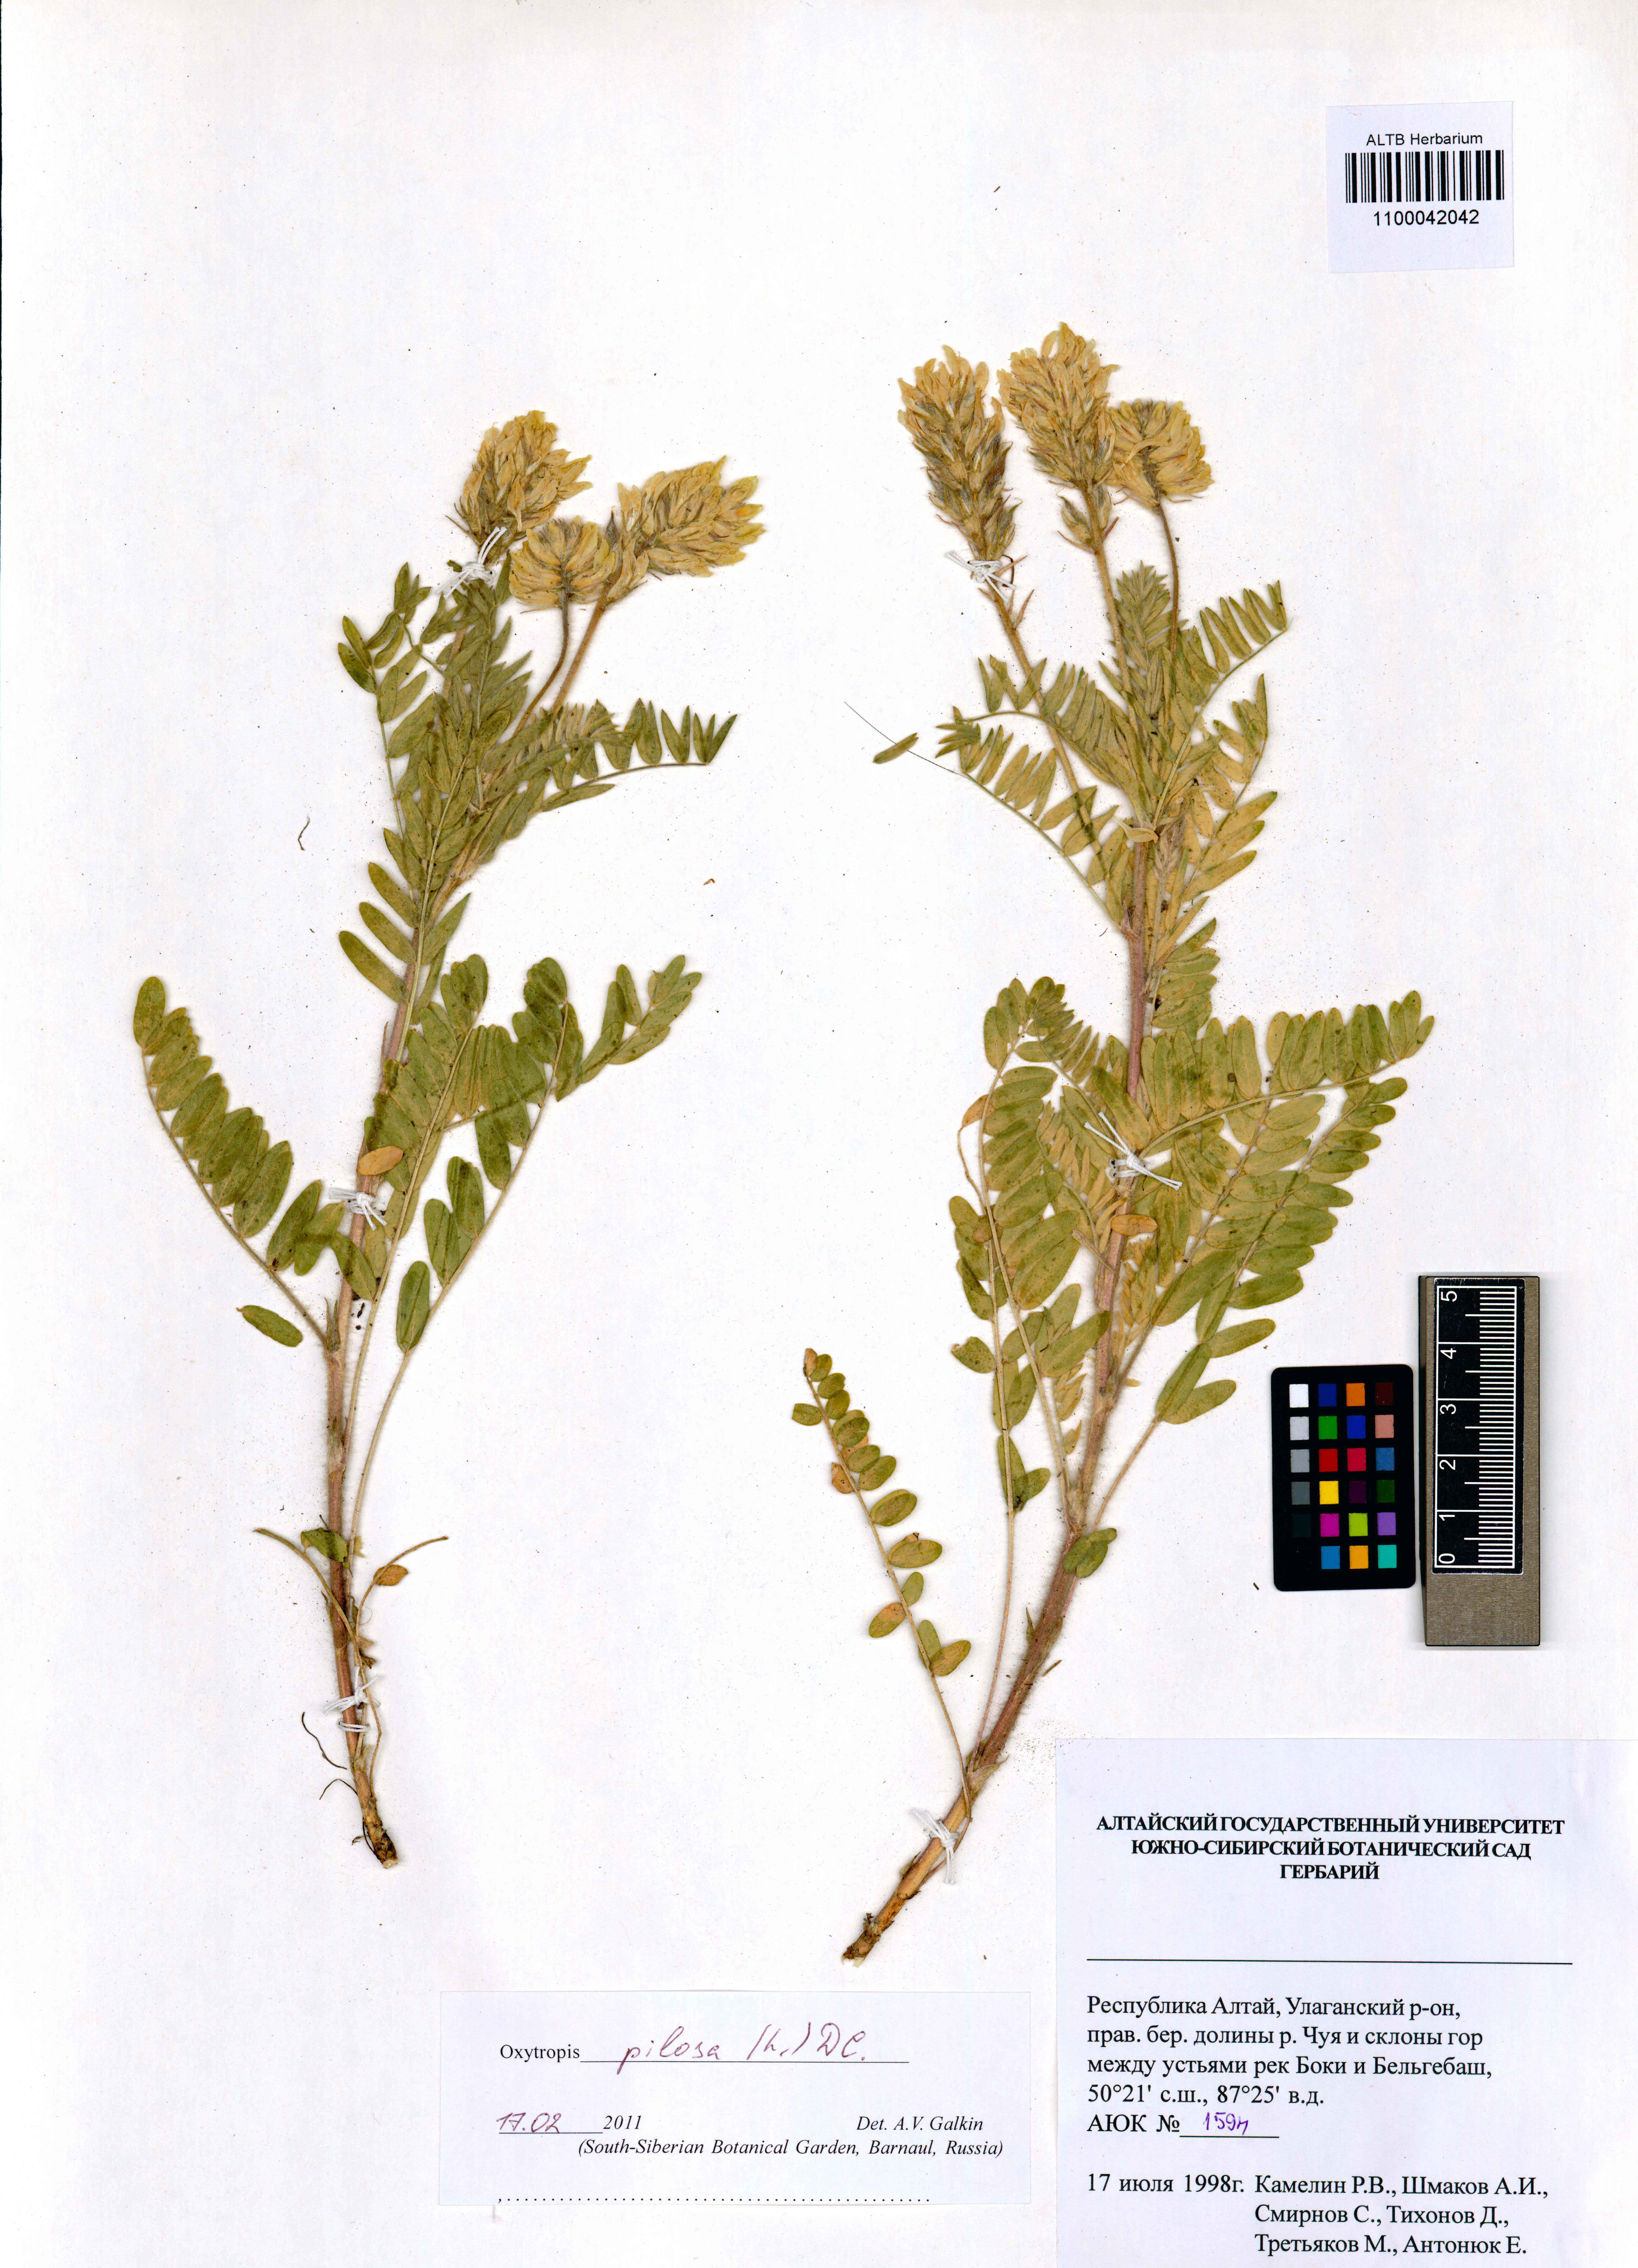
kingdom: Plantae
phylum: Tracheophyta
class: Magnoliopsida
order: Fabales
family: Fabaceae
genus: Oxytropis
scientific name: Oxytropis pilosa
